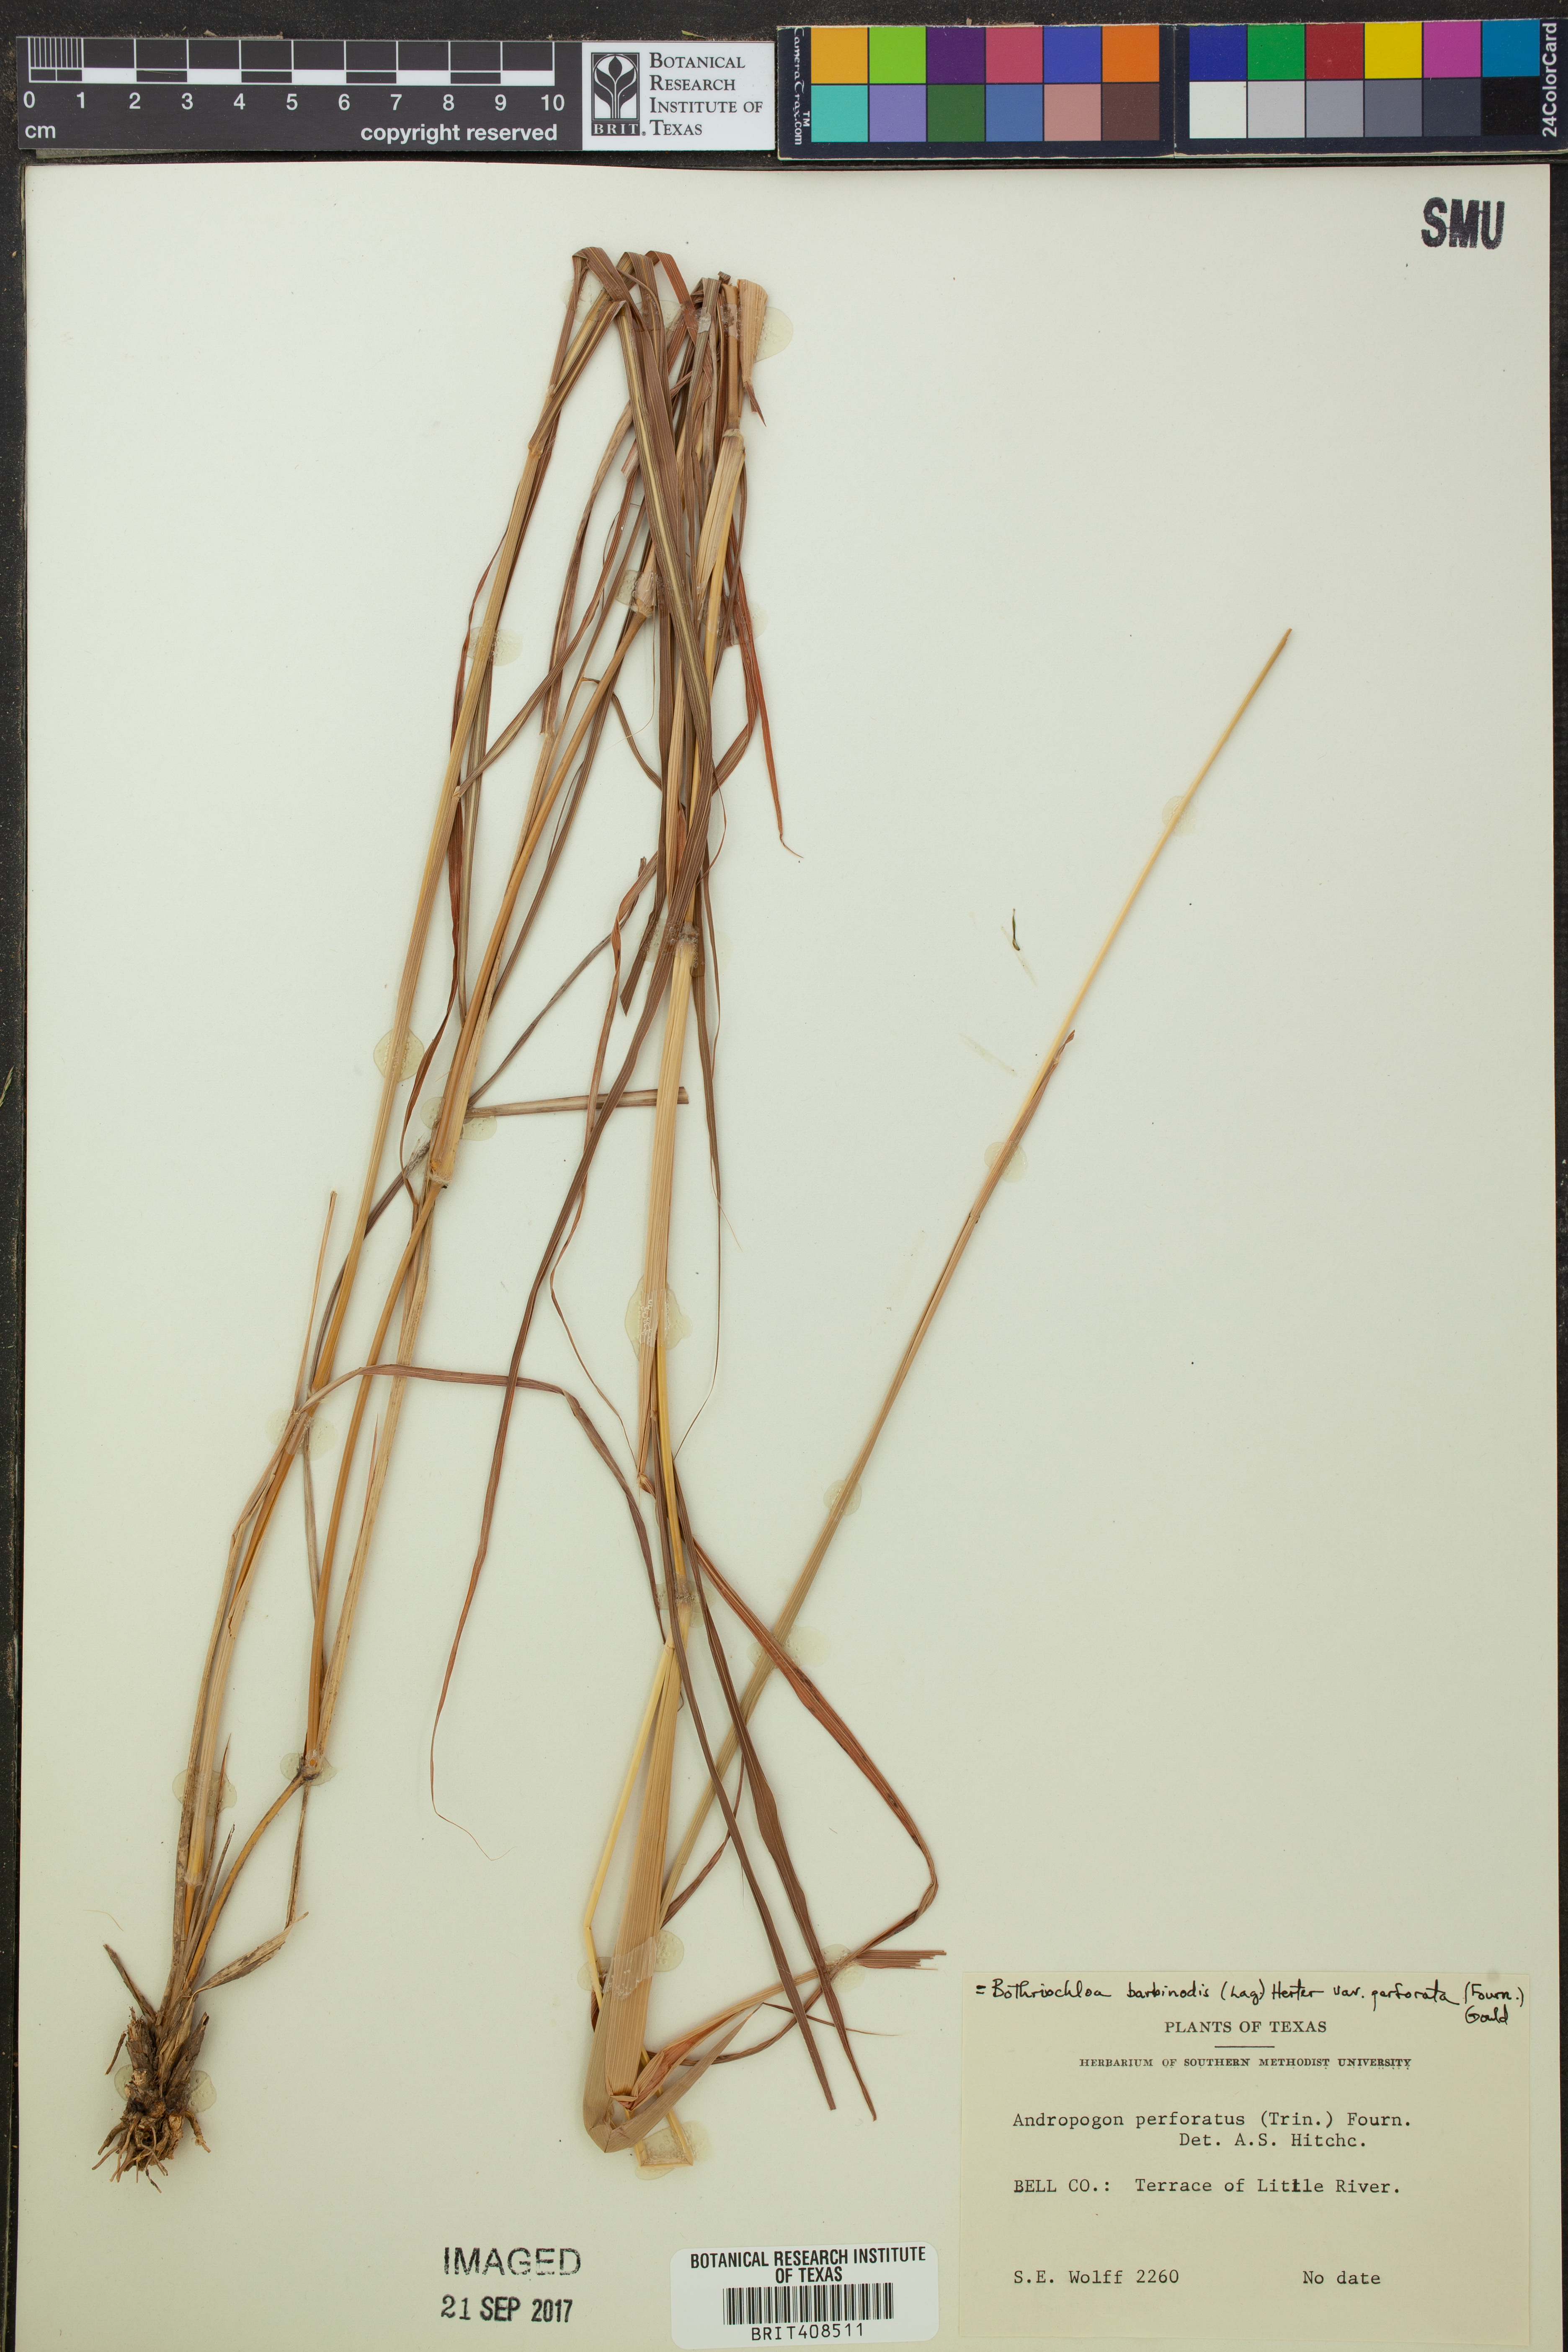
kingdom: Plantae
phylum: Tracheophyta
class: Liliopsida
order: Poales
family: Poaceae
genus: Bothriochloa
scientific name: Bothriochloa barbinodis
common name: Cane bluestem
